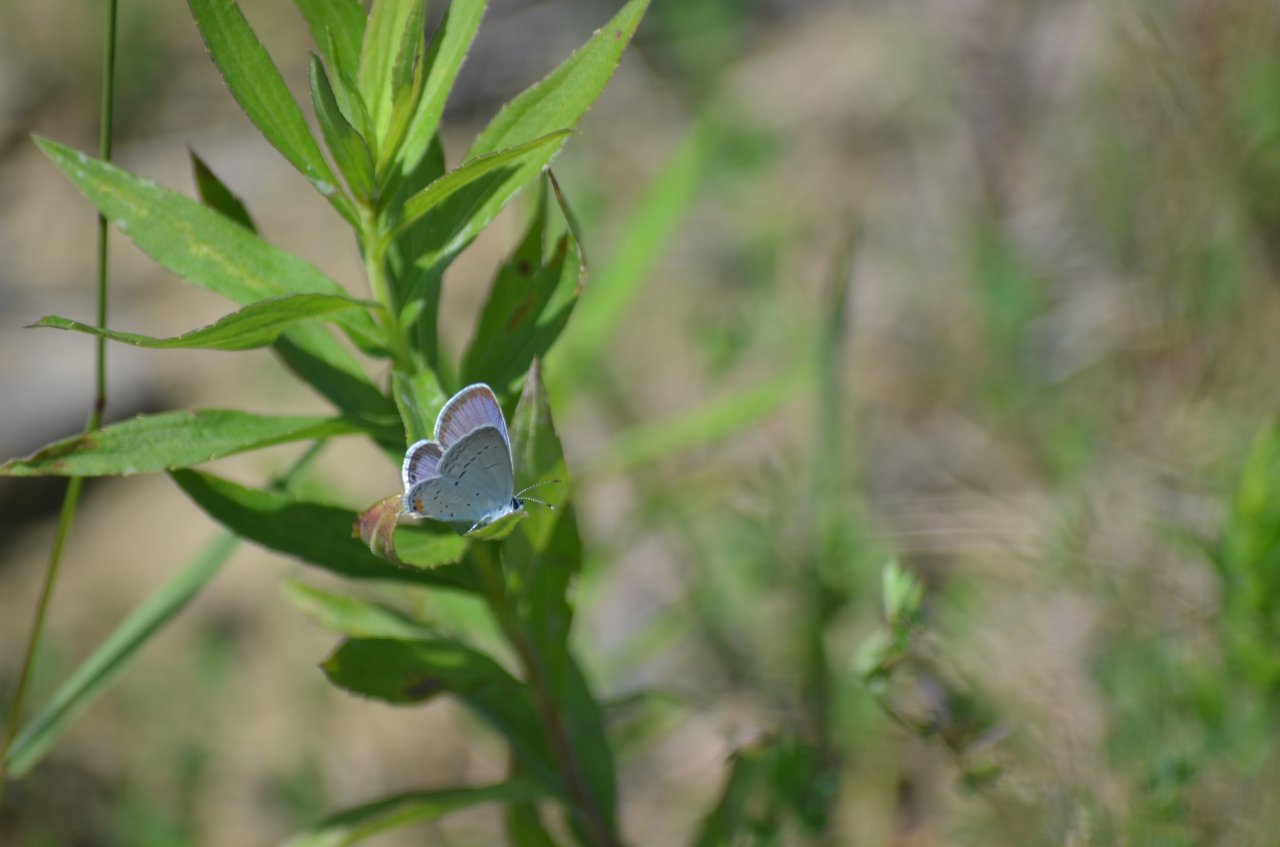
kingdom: Animalia
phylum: Arthropoda
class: Insecta
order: Lepidoptera
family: Lycaenidae
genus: Elkalyce
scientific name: Elkalyce comyntas
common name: Eastern Tailed-Blue
